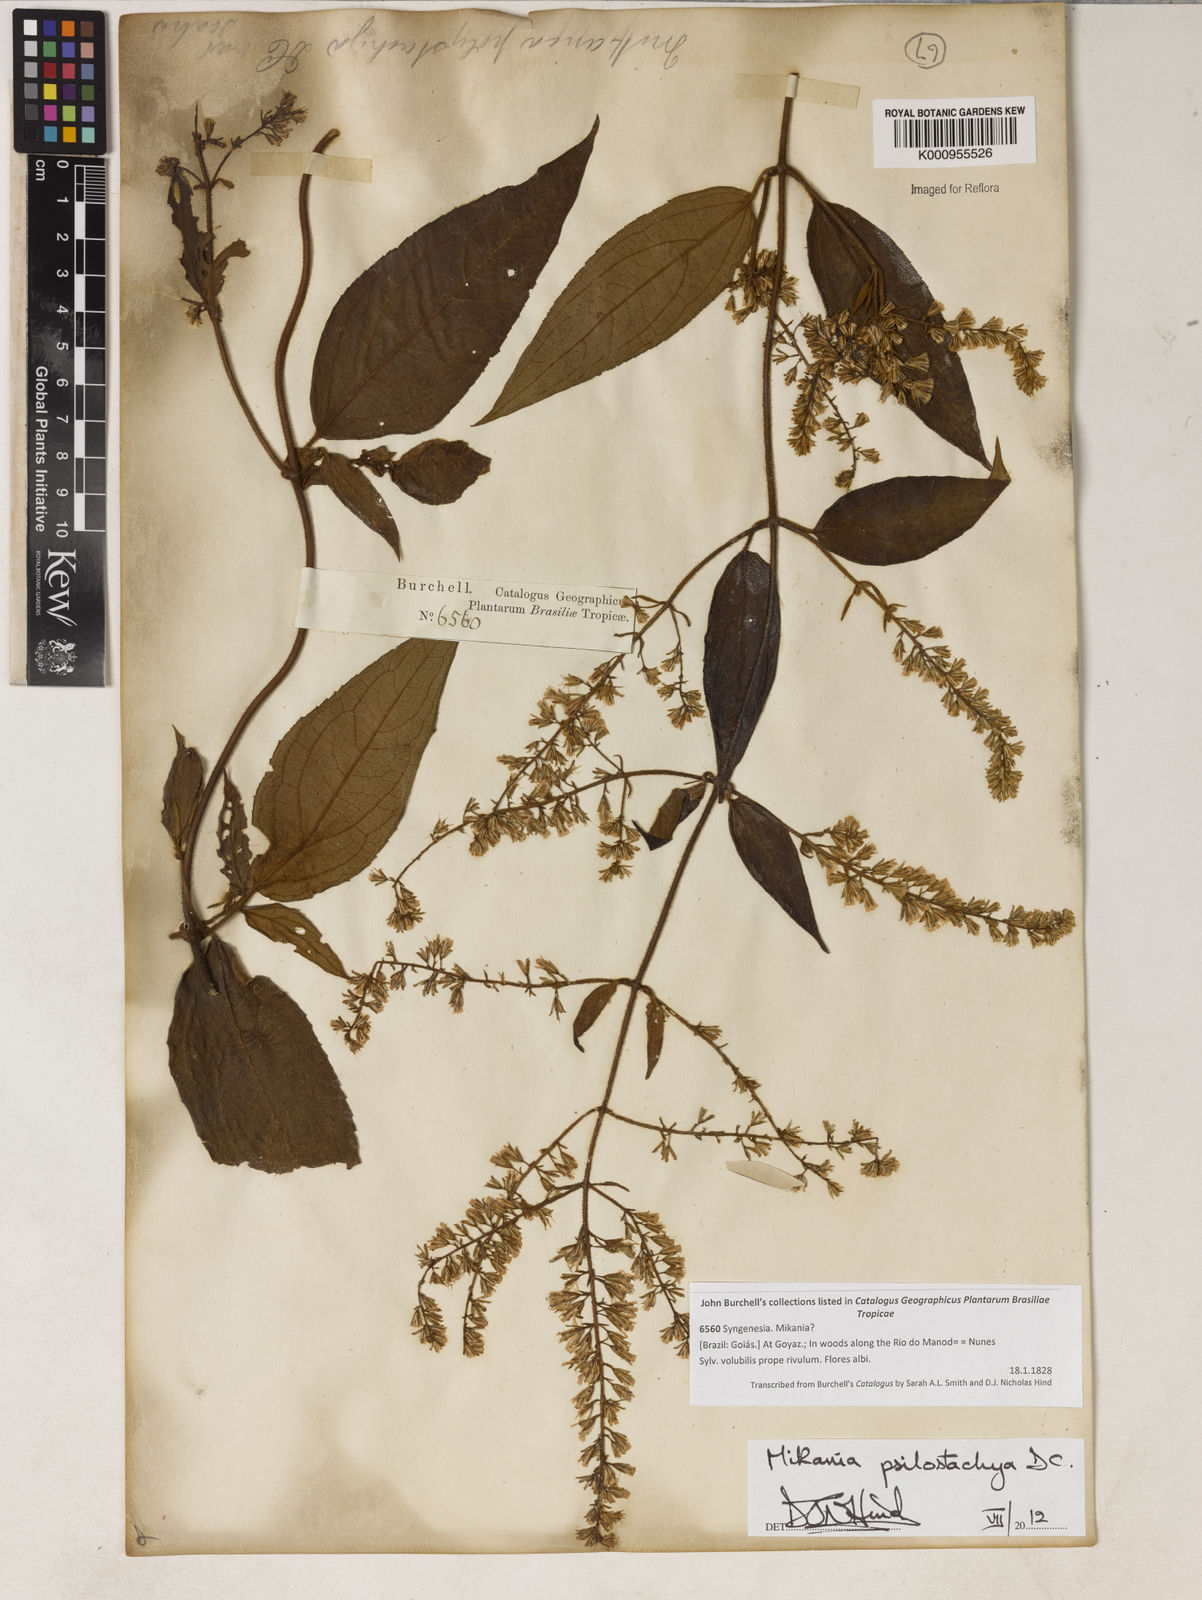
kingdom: Plantae
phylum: Tracheophyta
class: Magnoliopsida
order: Asterales
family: Asteraceae
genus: Mikania
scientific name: Mikania psilostachya
